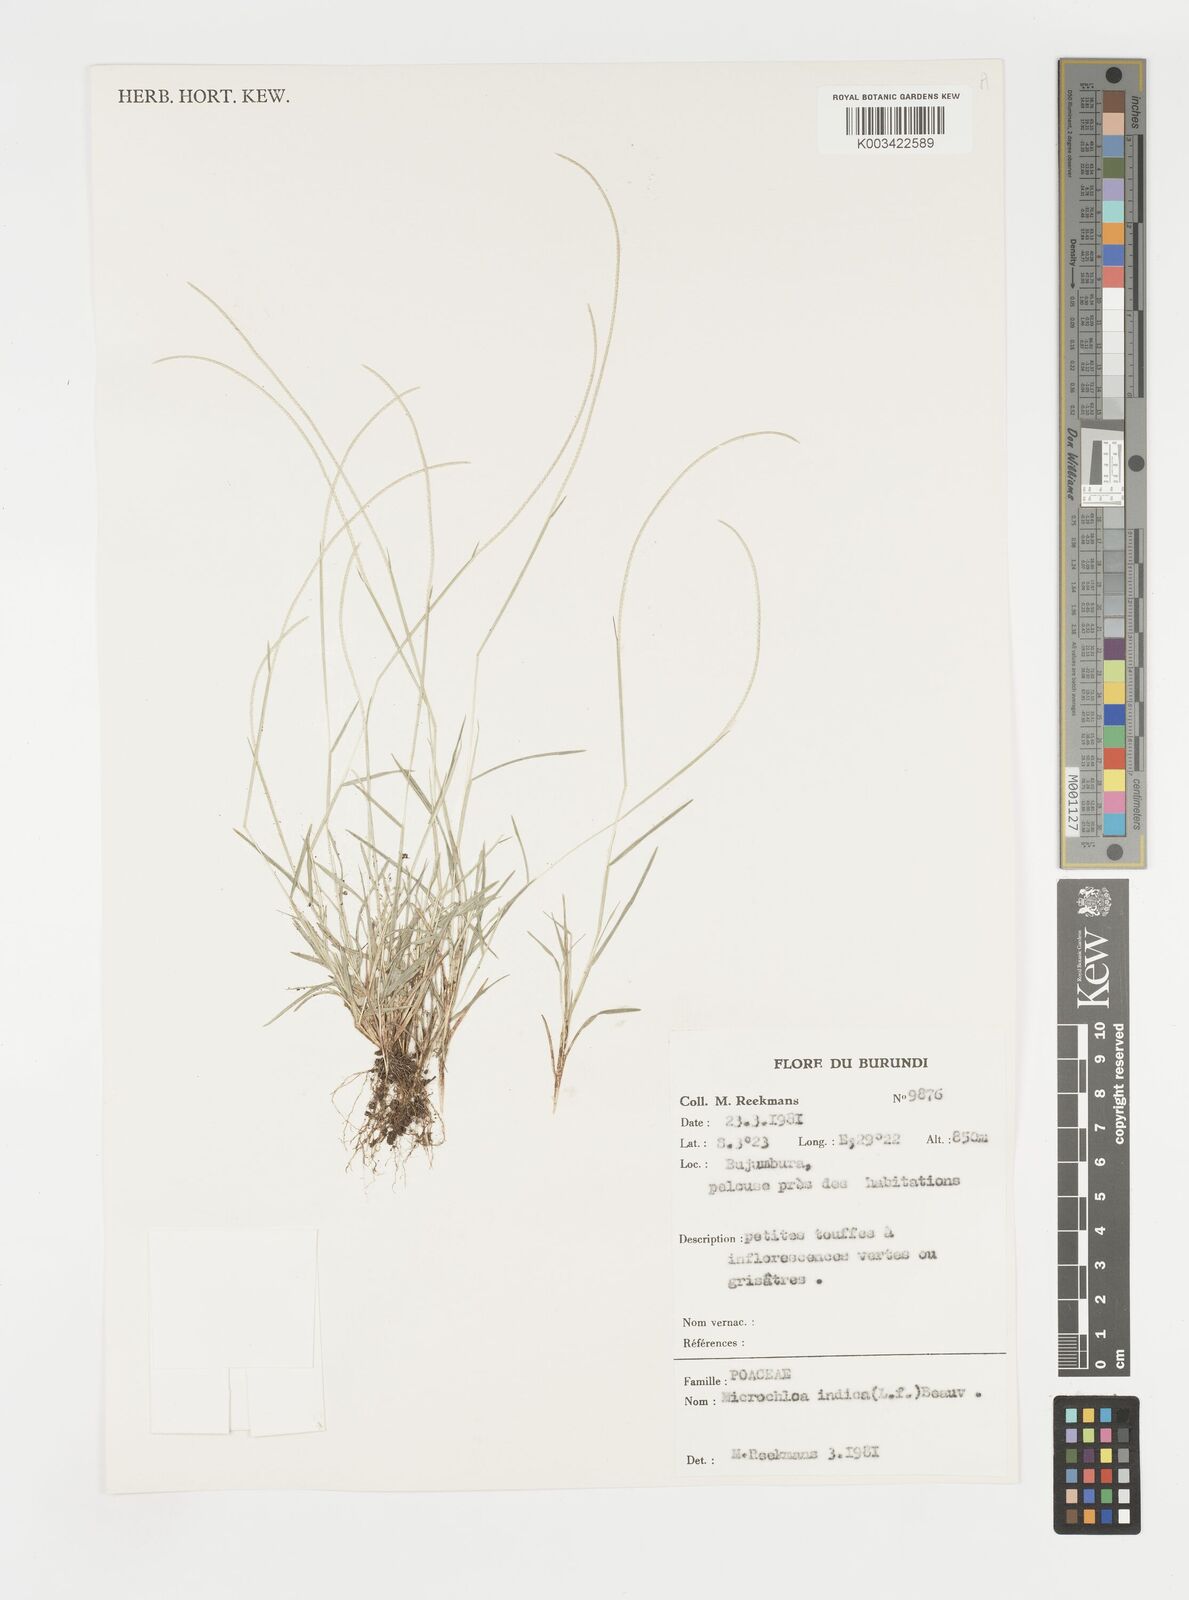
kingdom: Plantae
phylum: Tracheophyta
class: Liliopsida
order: Poales
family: Poaceae
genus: Microchloa
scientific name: Microchloa indica
